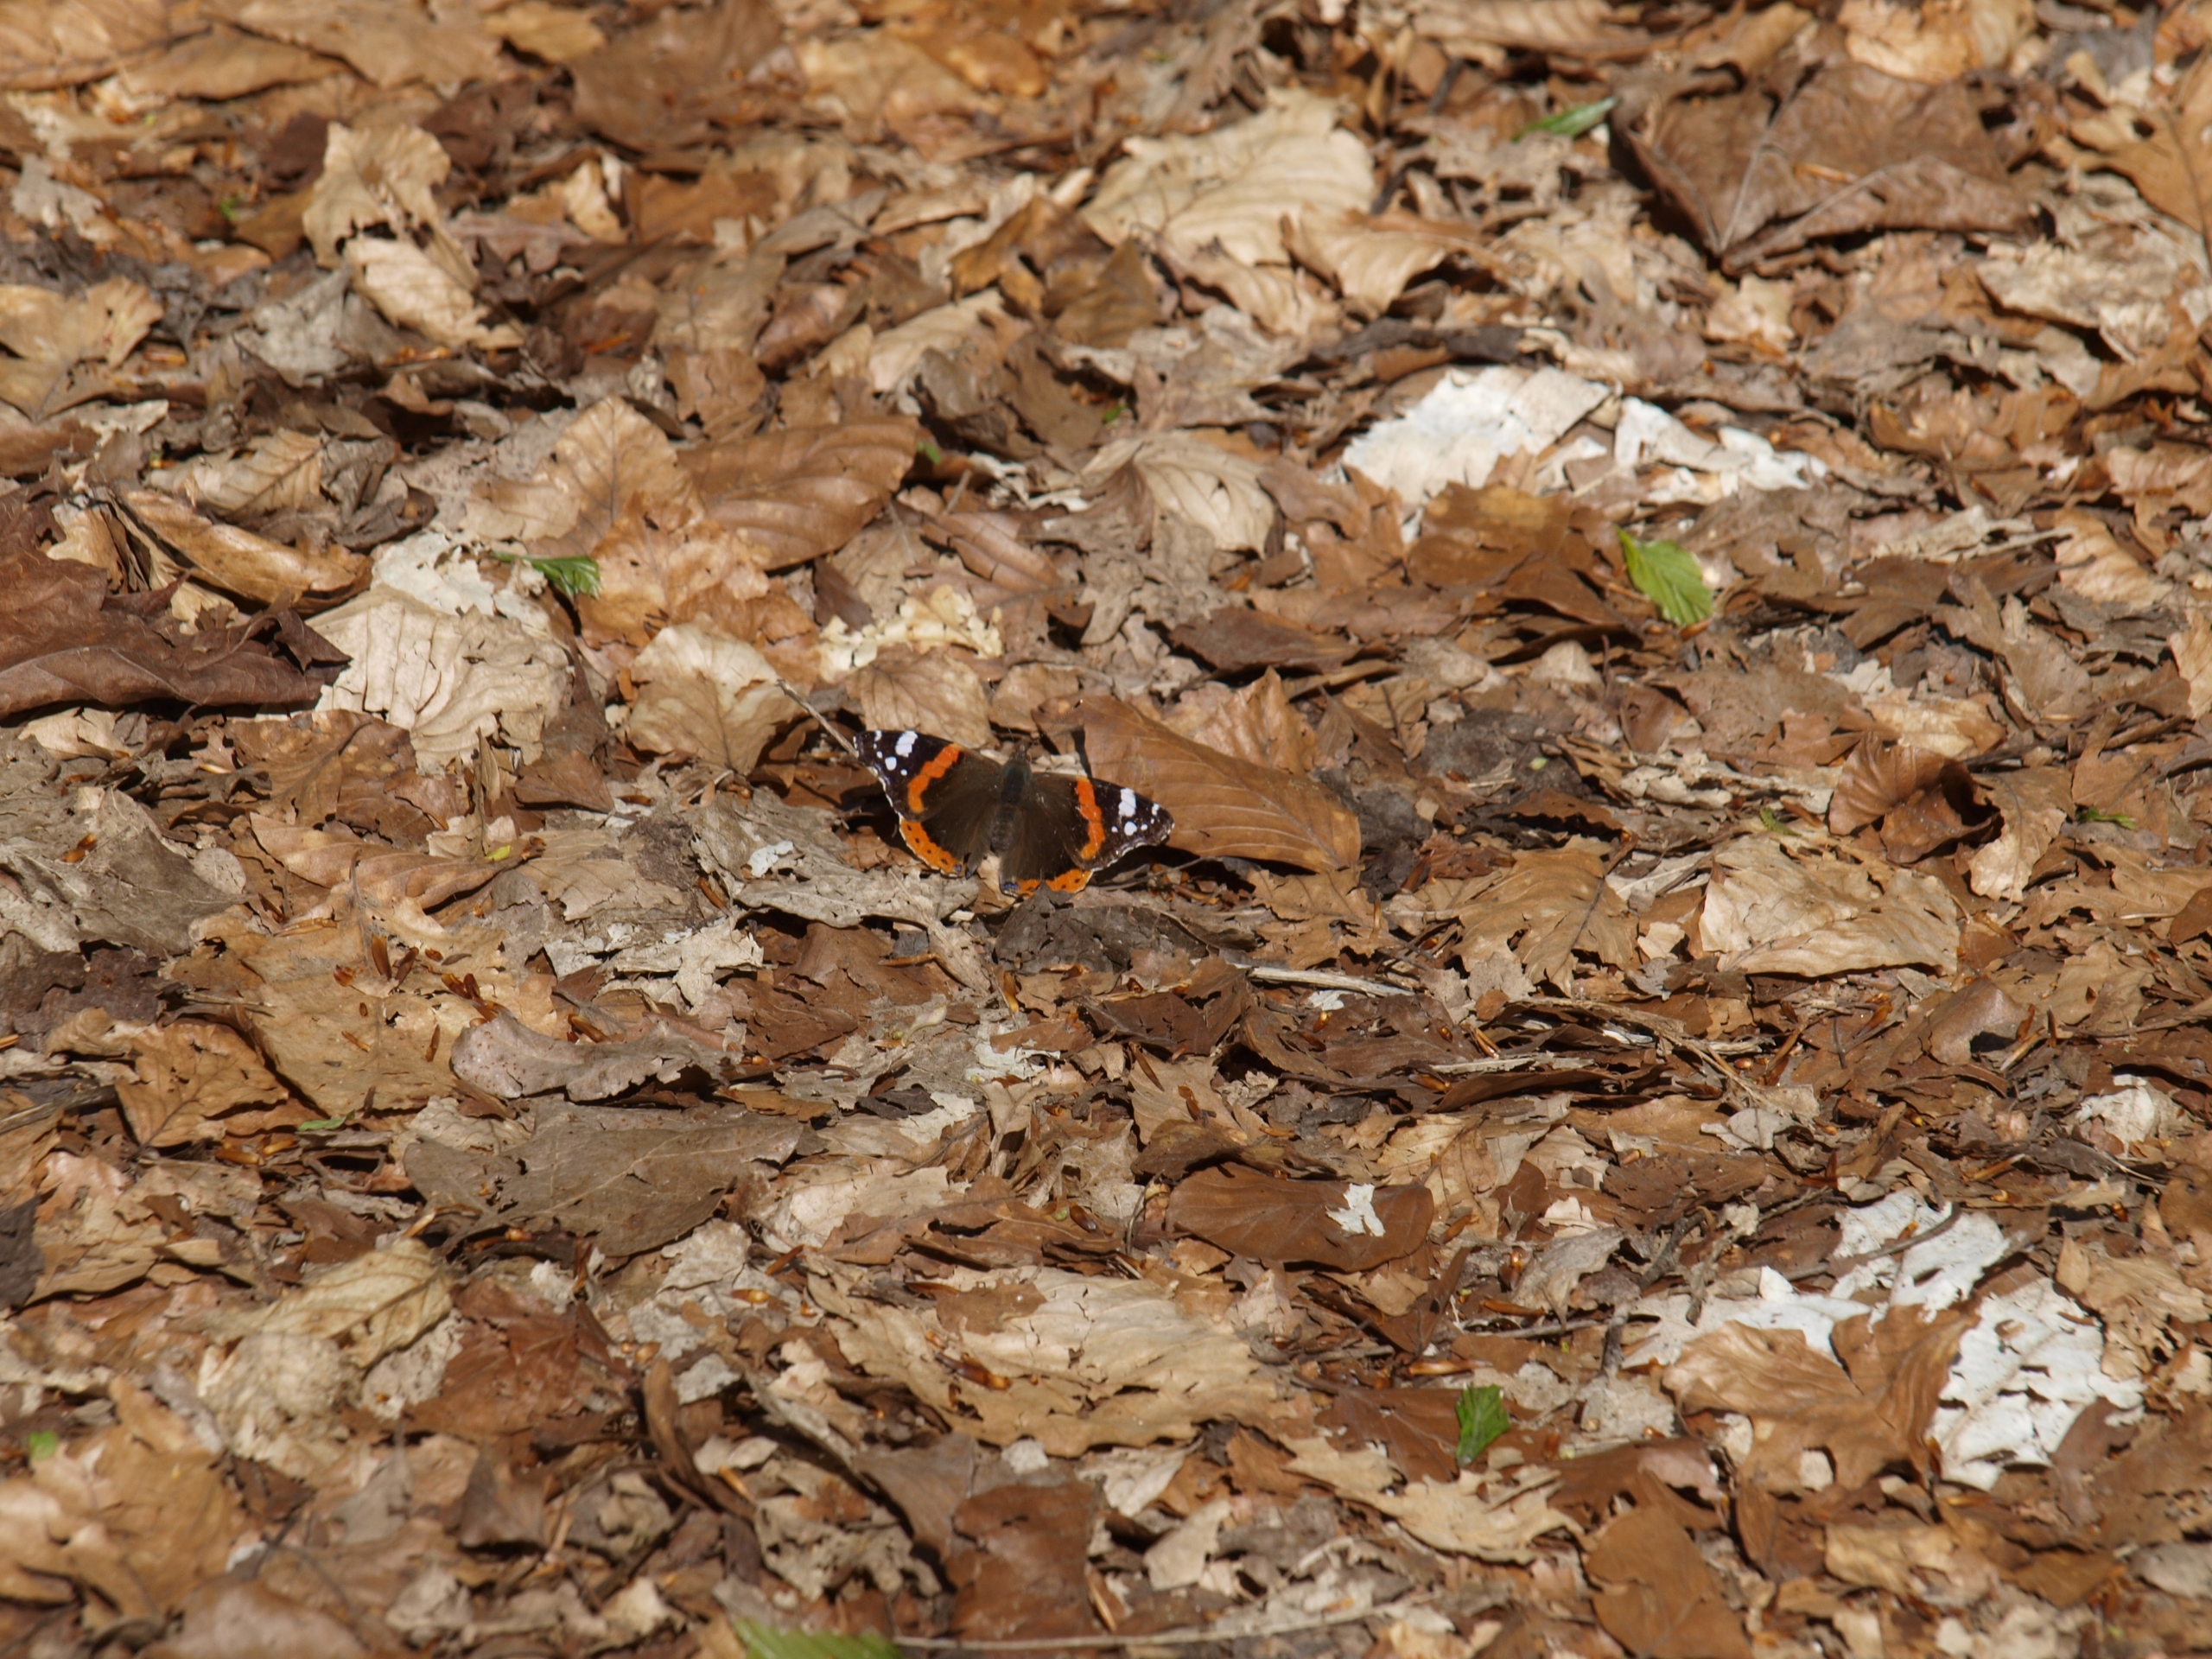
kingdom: Animalia
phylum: Arthropoda
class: Insecta
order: Lepidoptera
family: Nymphalidae
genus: Vanessa
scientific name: Vanessa atalanta
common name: Admiral
